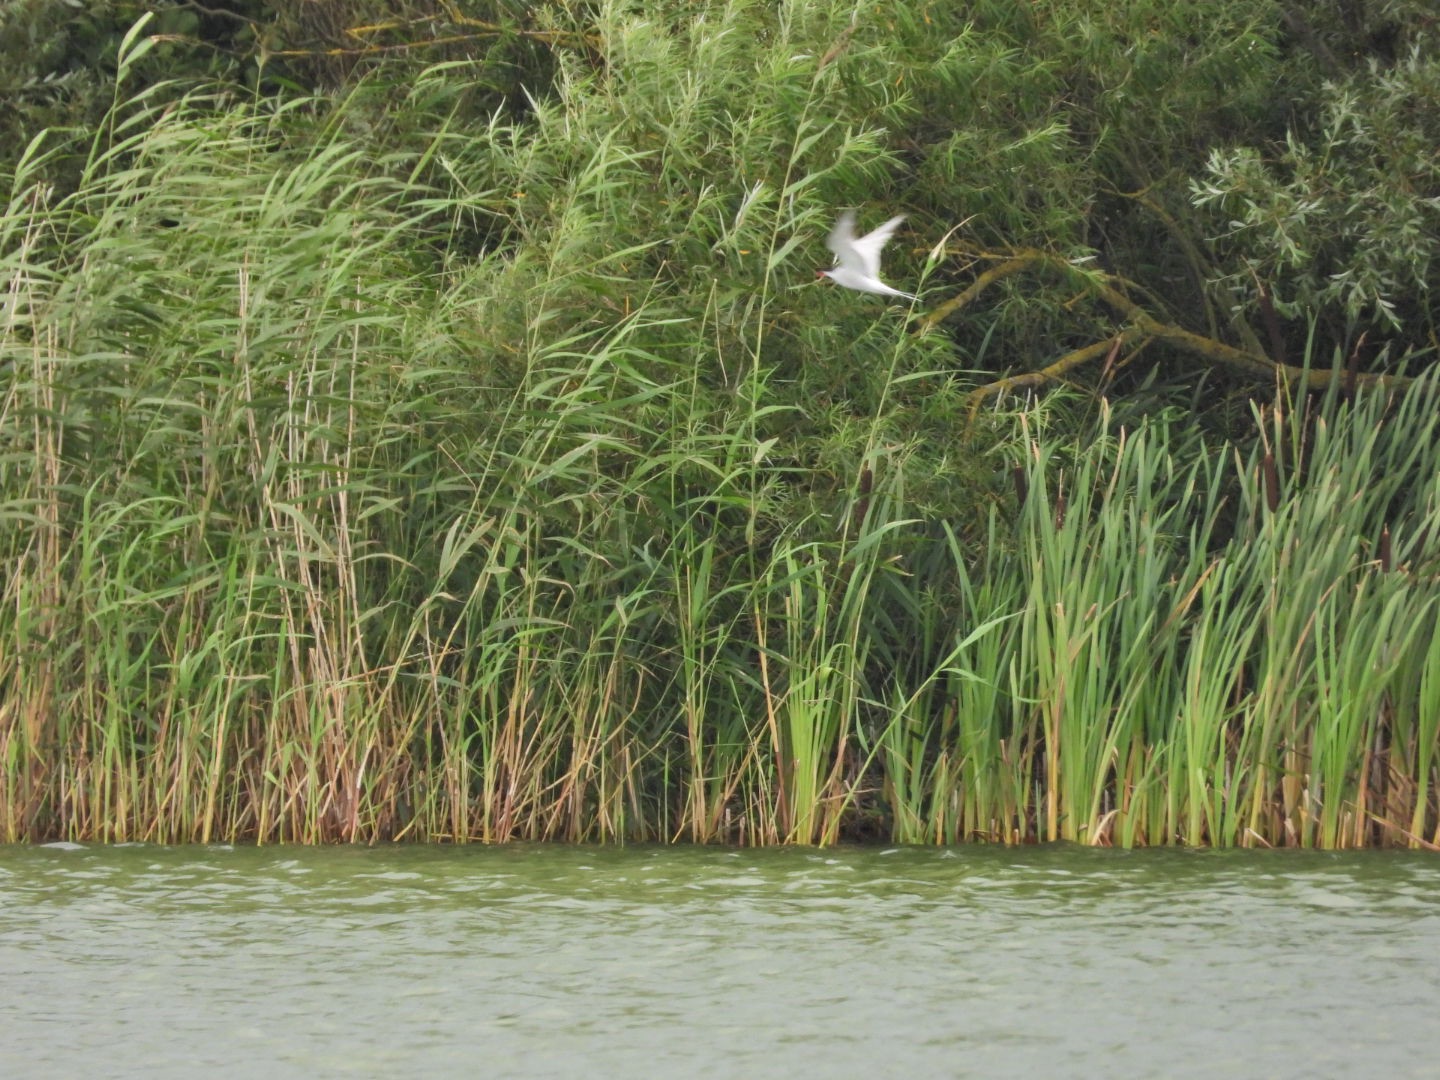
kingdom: Animalia
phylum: Chordata
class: Aves
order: Charadriiformes
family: Laridae
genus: Sterna
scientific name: Sterna hirundo
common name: Fjordterne
